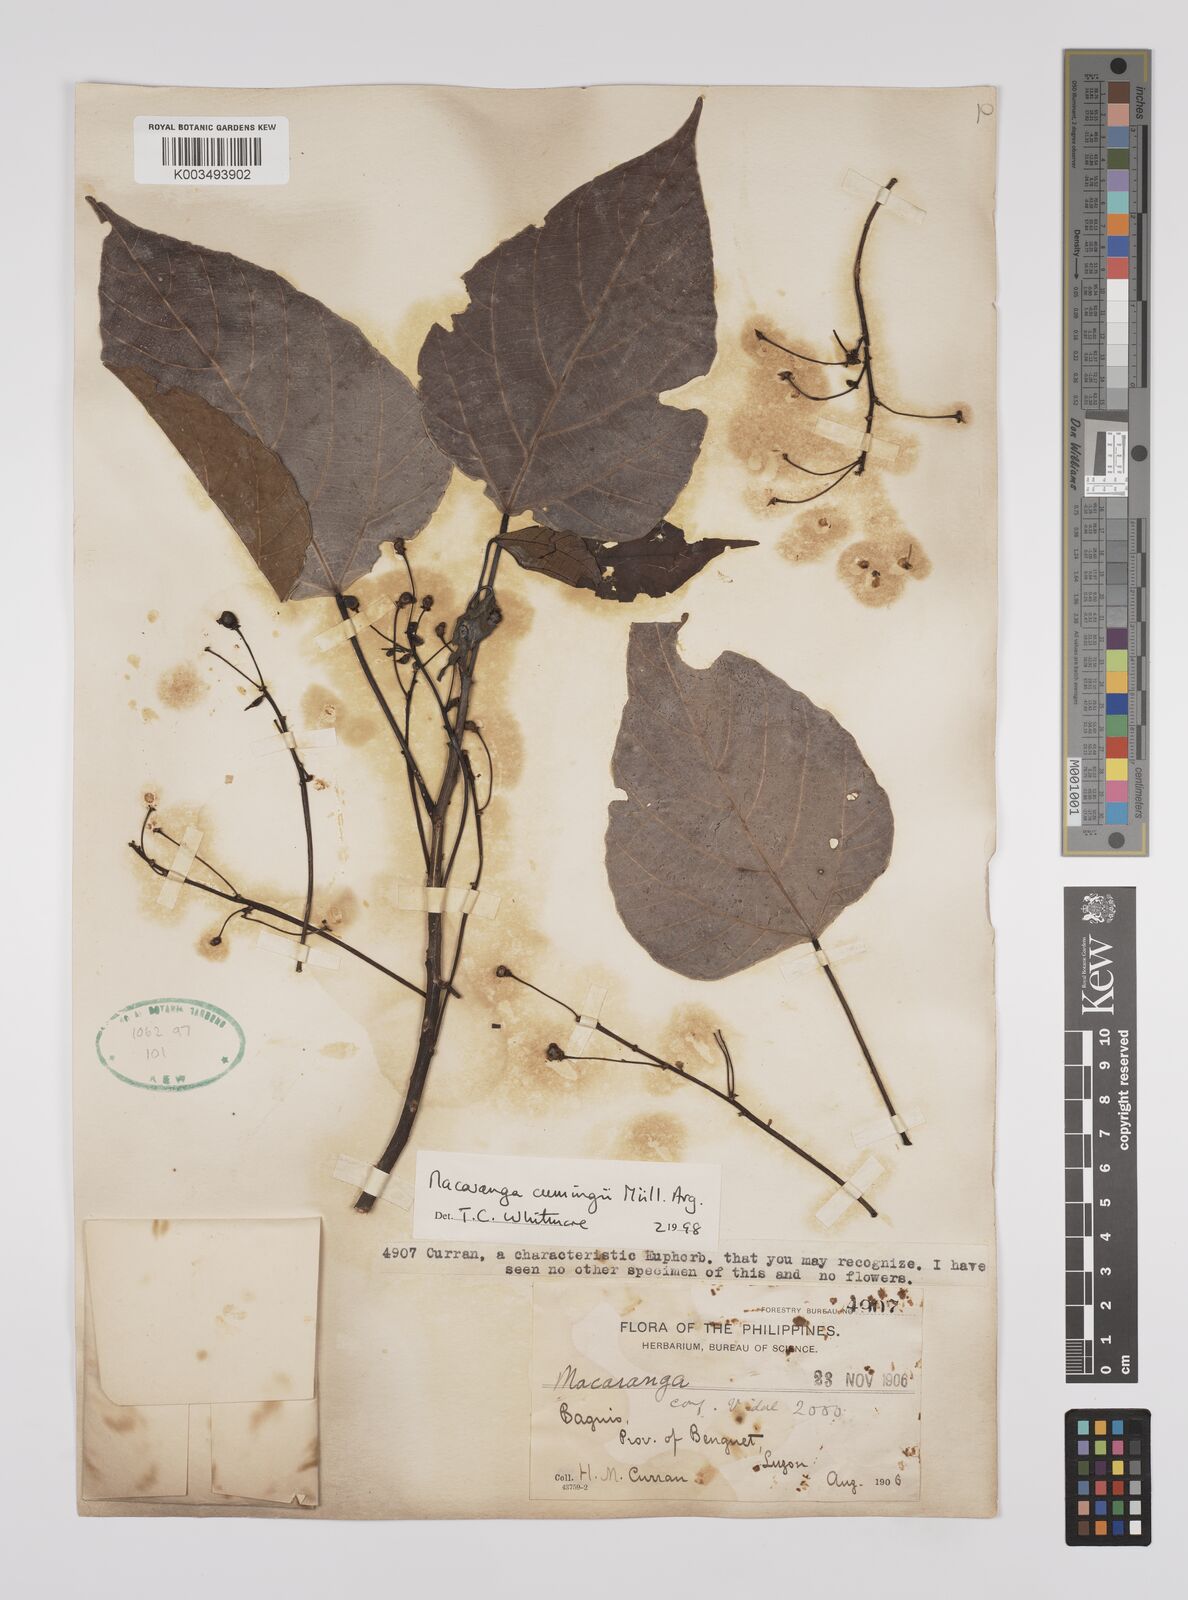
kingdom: Plantae
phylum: Tracheophyta
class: Magnoliopsida
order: Malpighiales
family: Euphorbiaceae
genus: Macaranga
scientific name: Macaranga cumingii
